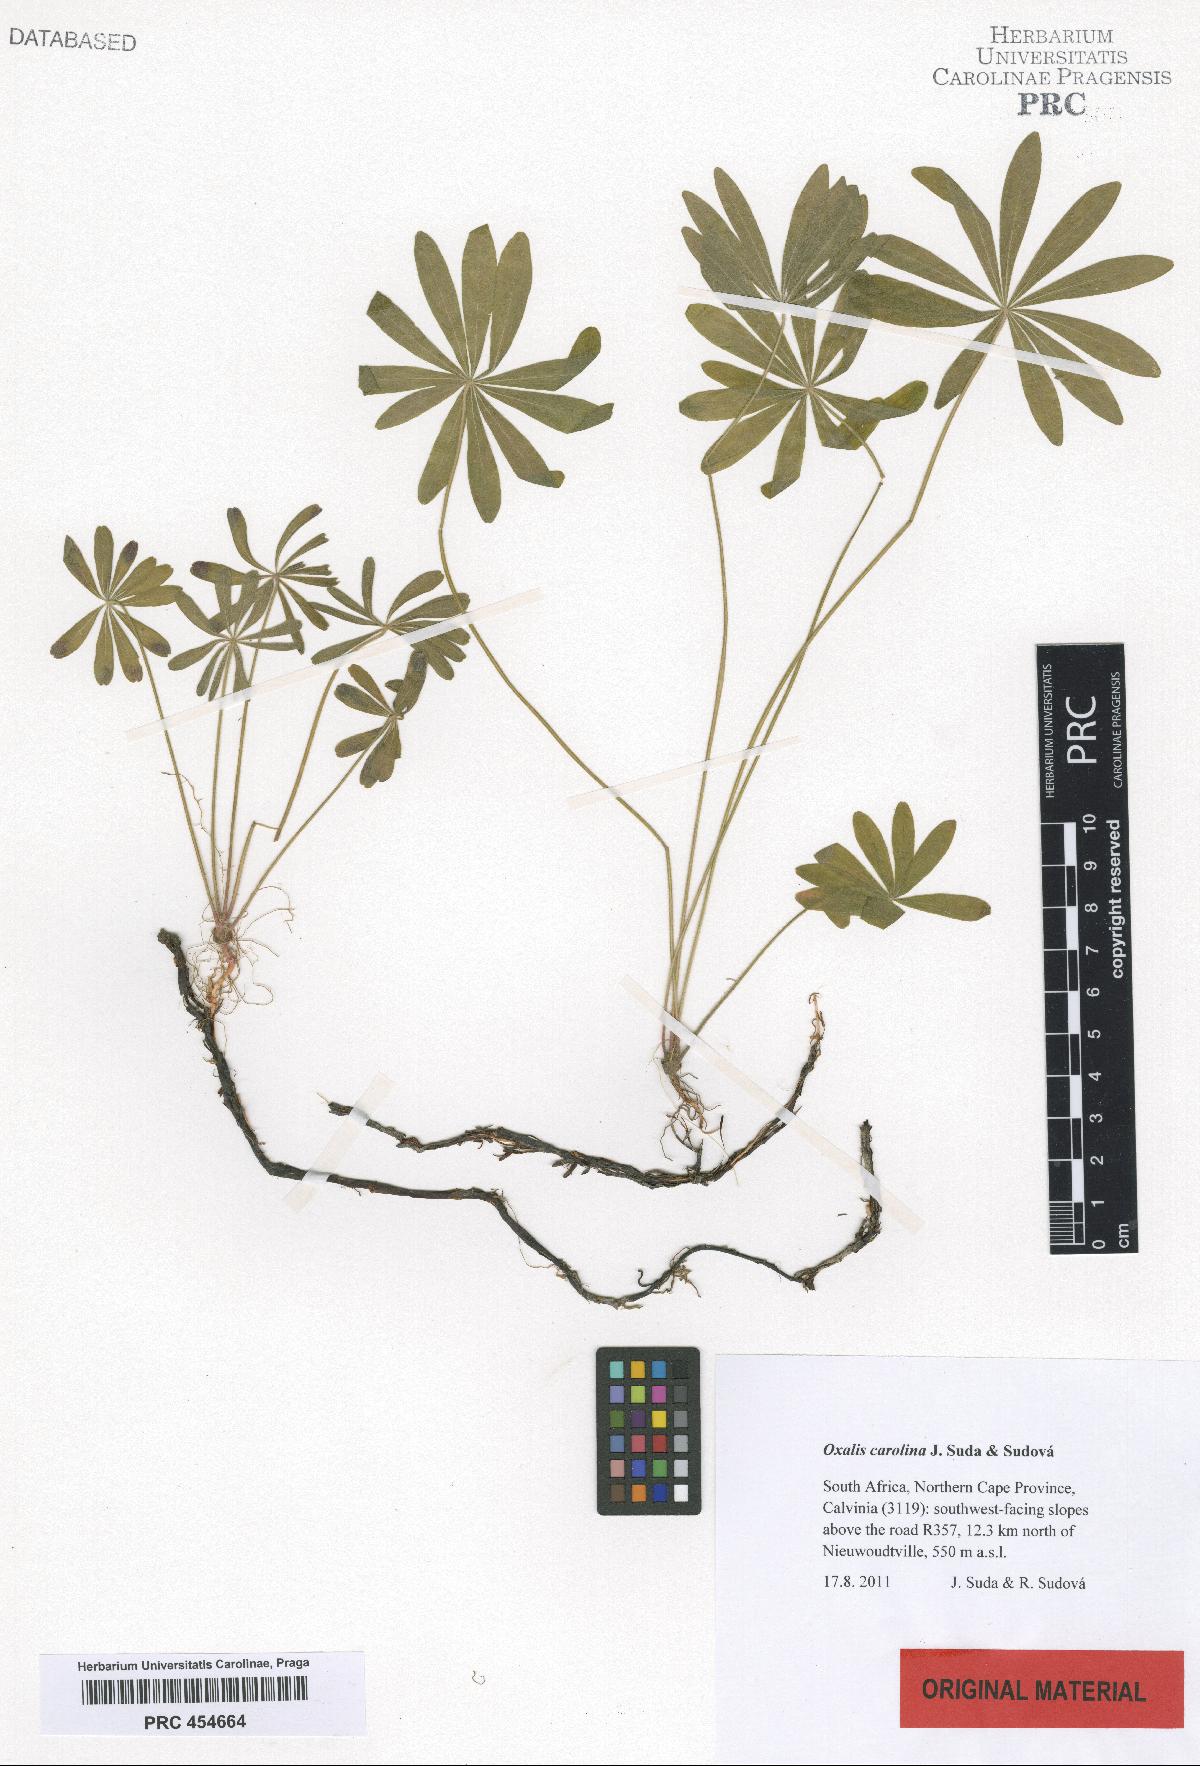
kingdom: Plantae
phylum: Tracheophyta
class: Magnoliopsida
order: Oxalidales
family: Oxalidaceae
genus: Oxalis
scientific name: Oxalis carolina
